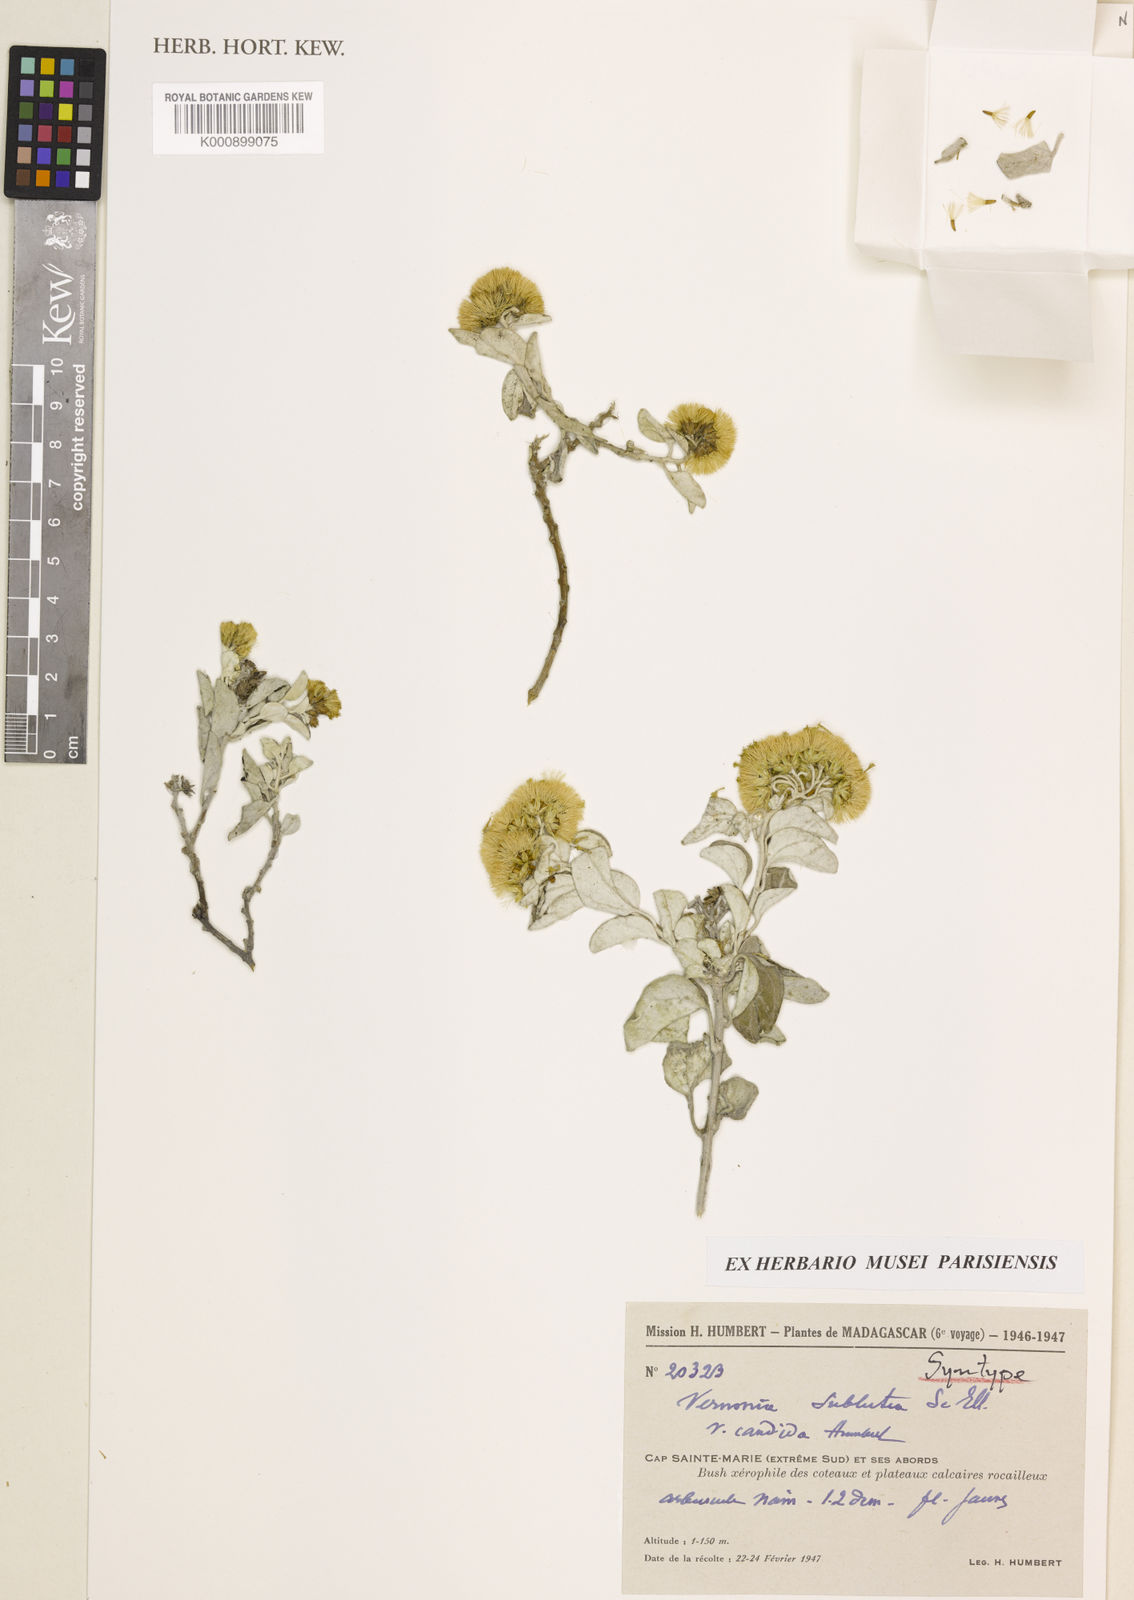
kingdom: Plantae
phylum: Tracheophyta
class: Magnoliopsida
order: Asterales
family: Asteraceae
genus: Distephanus
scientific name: Distephanus subluteus
